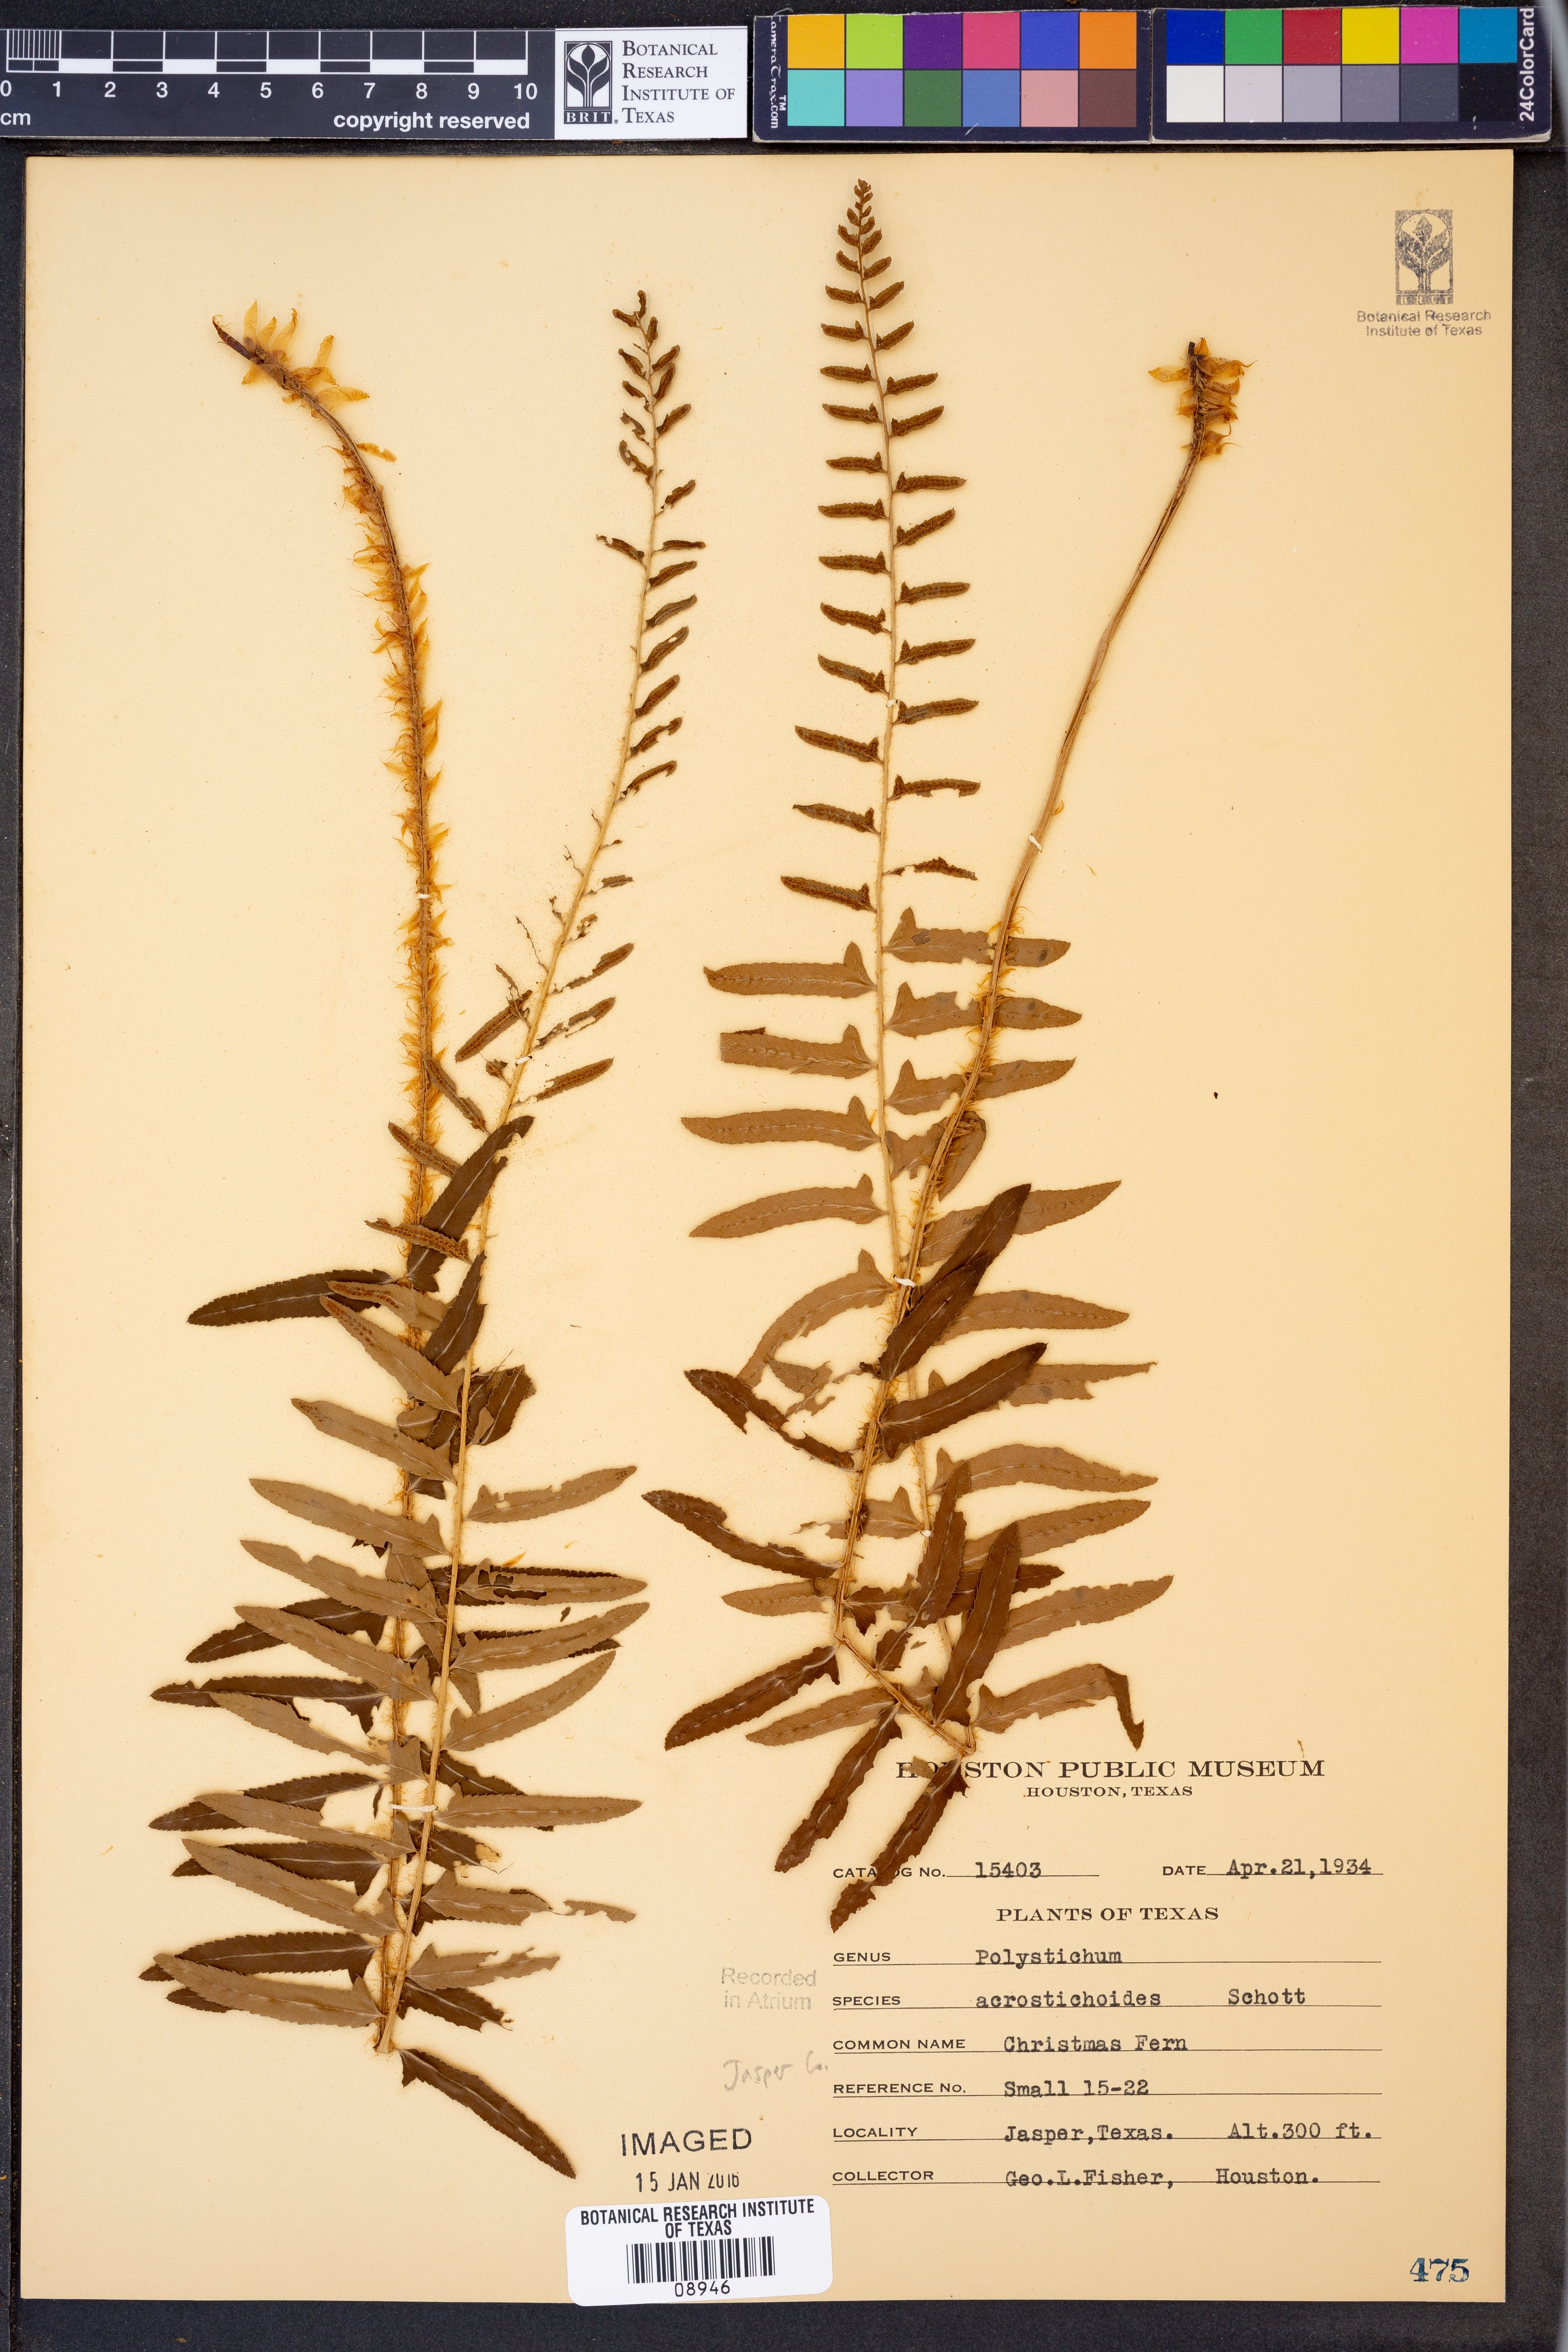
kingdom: Plantae
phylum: Tracheophyta
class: Polypodiopsida
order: Polypodiales
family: Dryopteridaceae
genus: Polystichum
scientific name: Polystichum acrostichoides
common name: Christmas fern
